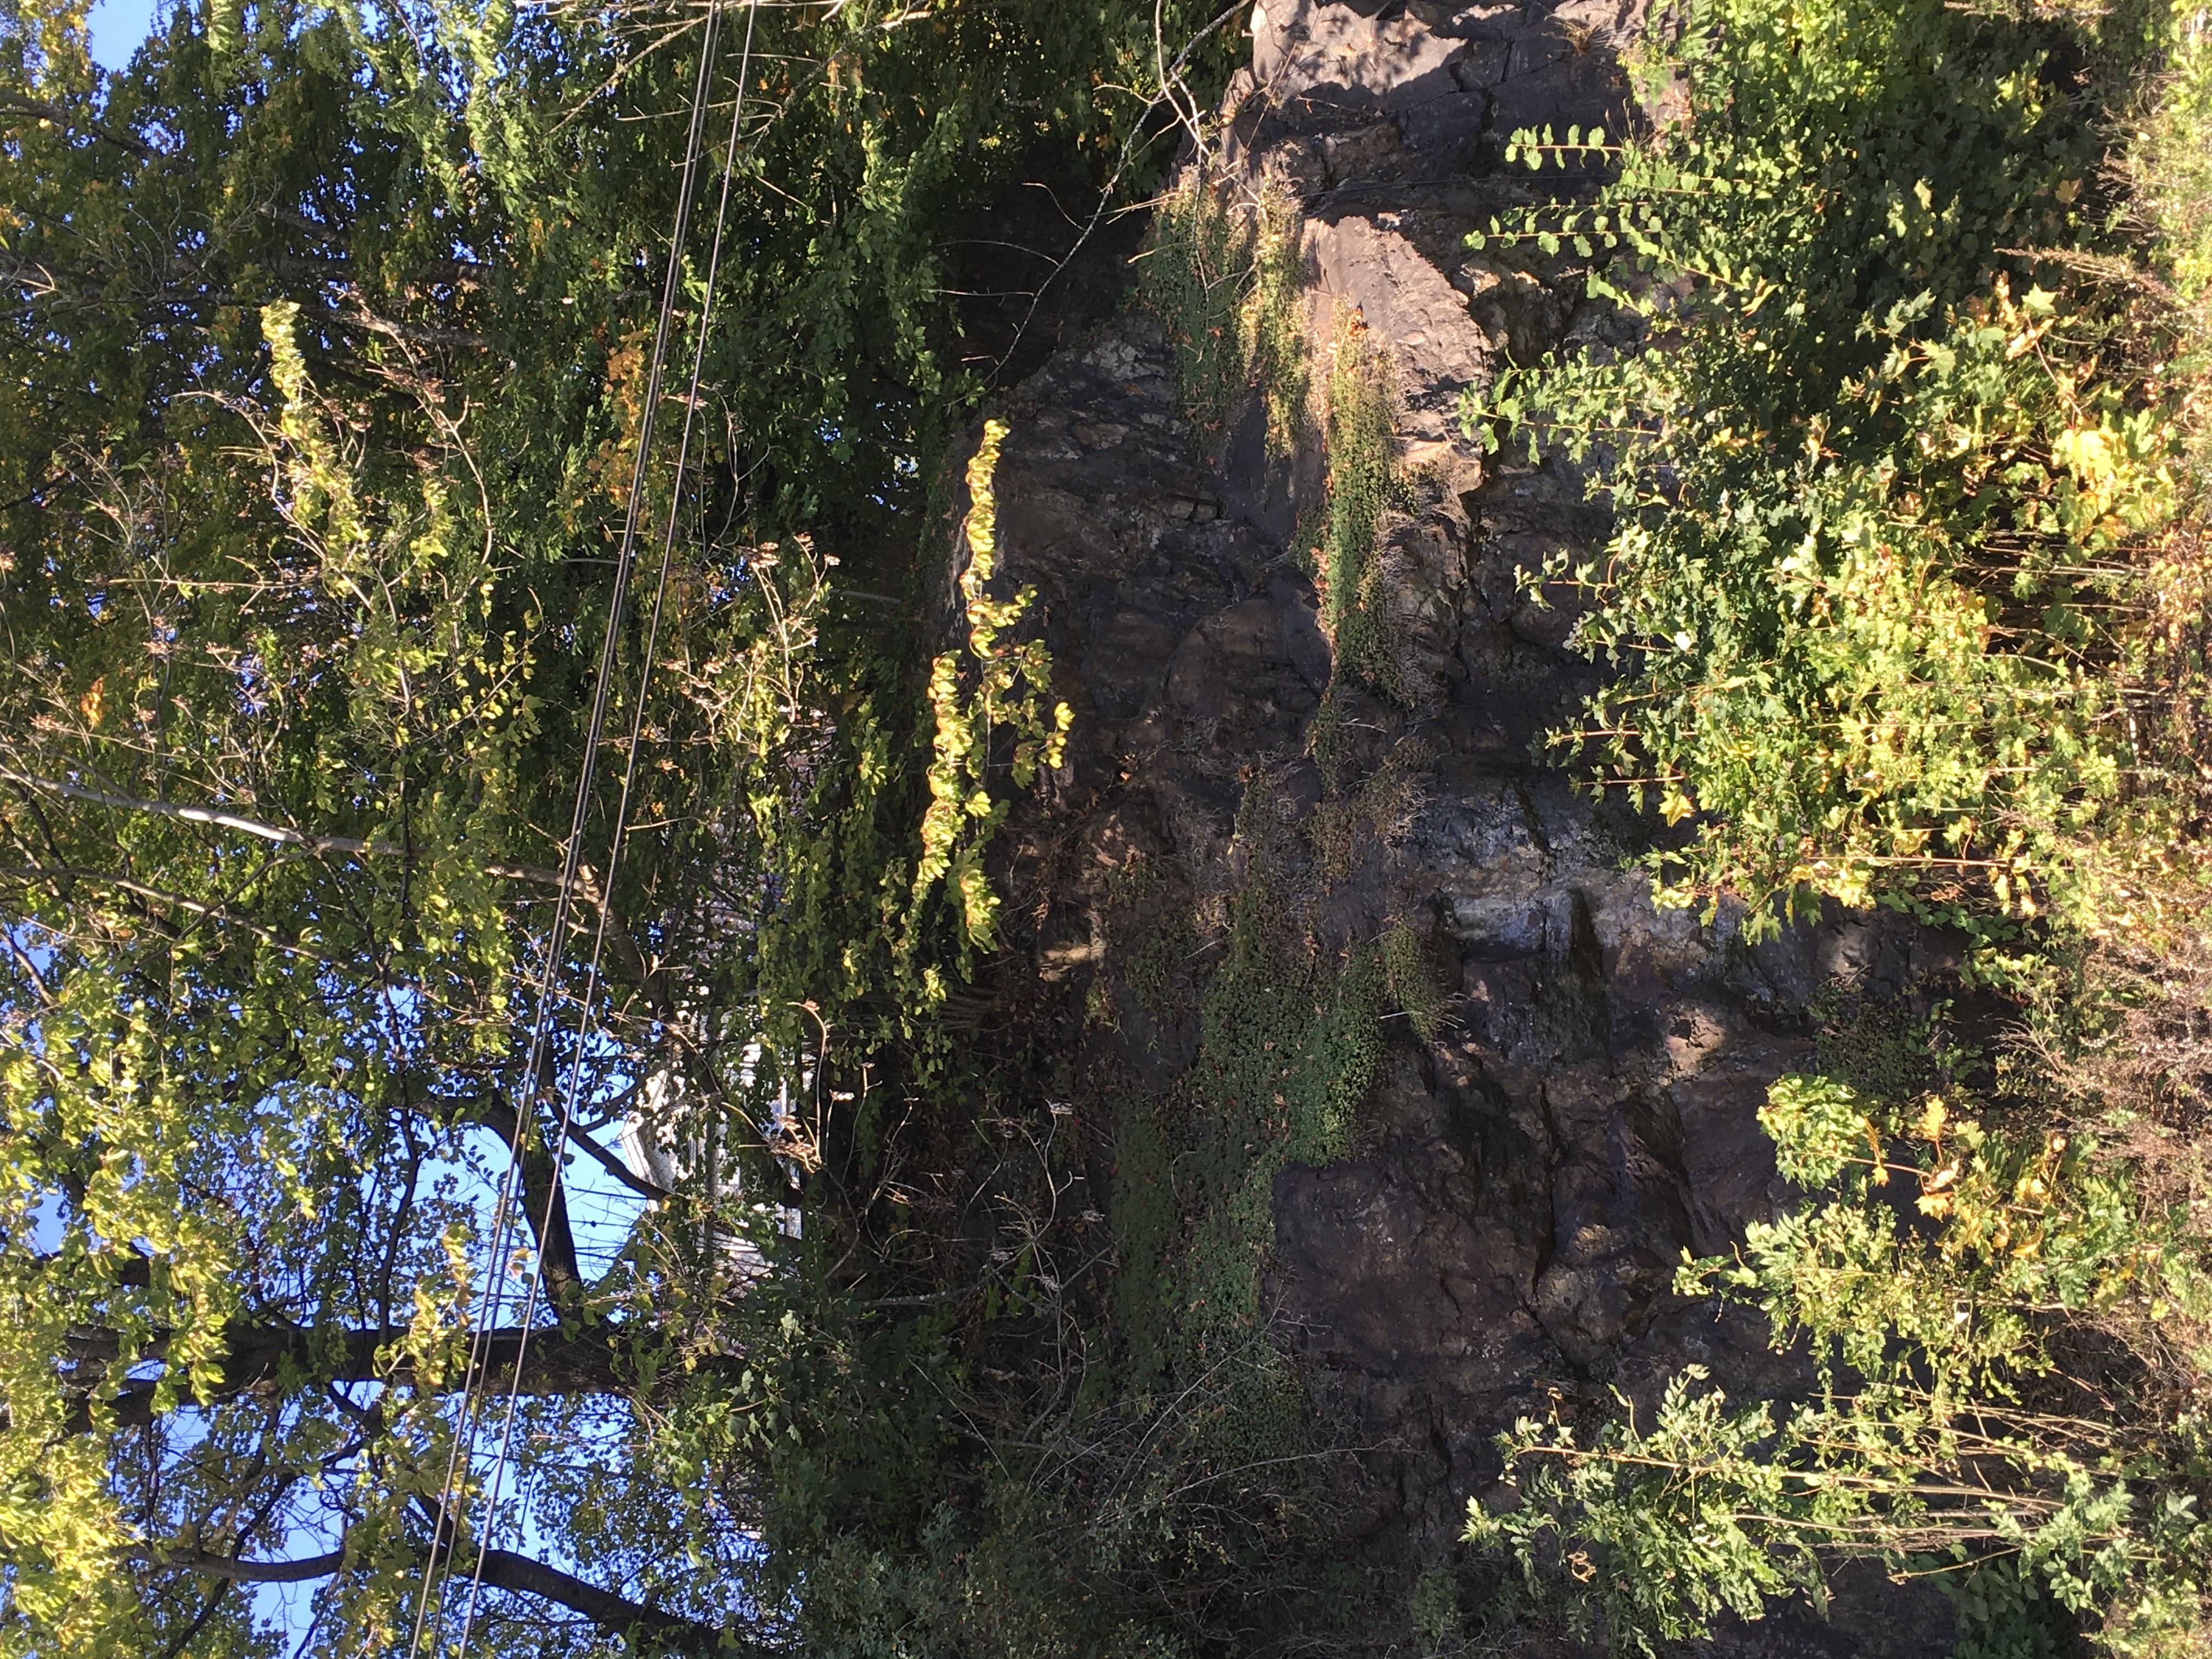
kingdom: Plantae
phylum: Tracheophyta
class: Magnoliopsida
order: Saxifragales
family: Crassulaceae
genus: Phedimus
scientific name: Phedimus spurius
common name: gravbergknapp
